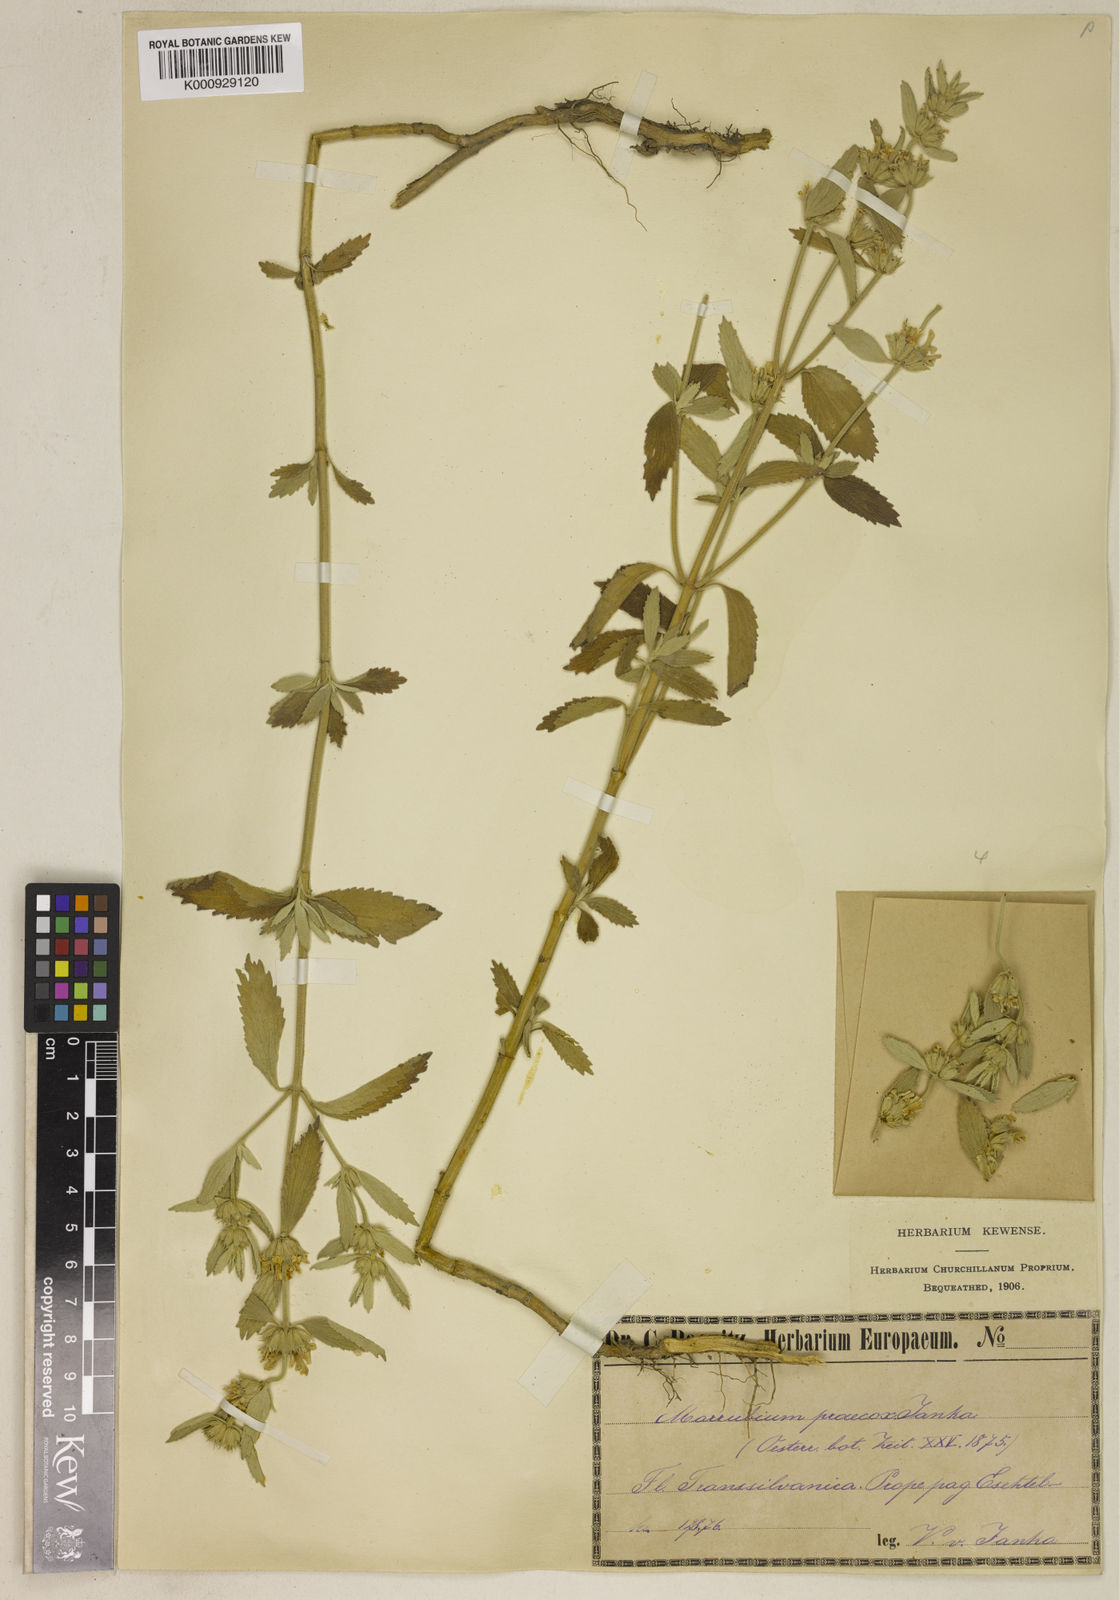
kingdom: Plantae
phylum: Tracheophyta
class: Magnoliopsida
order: Lamiales
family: Lamiaceae
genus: Marrubium
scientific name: Marrubium pestalozzae
